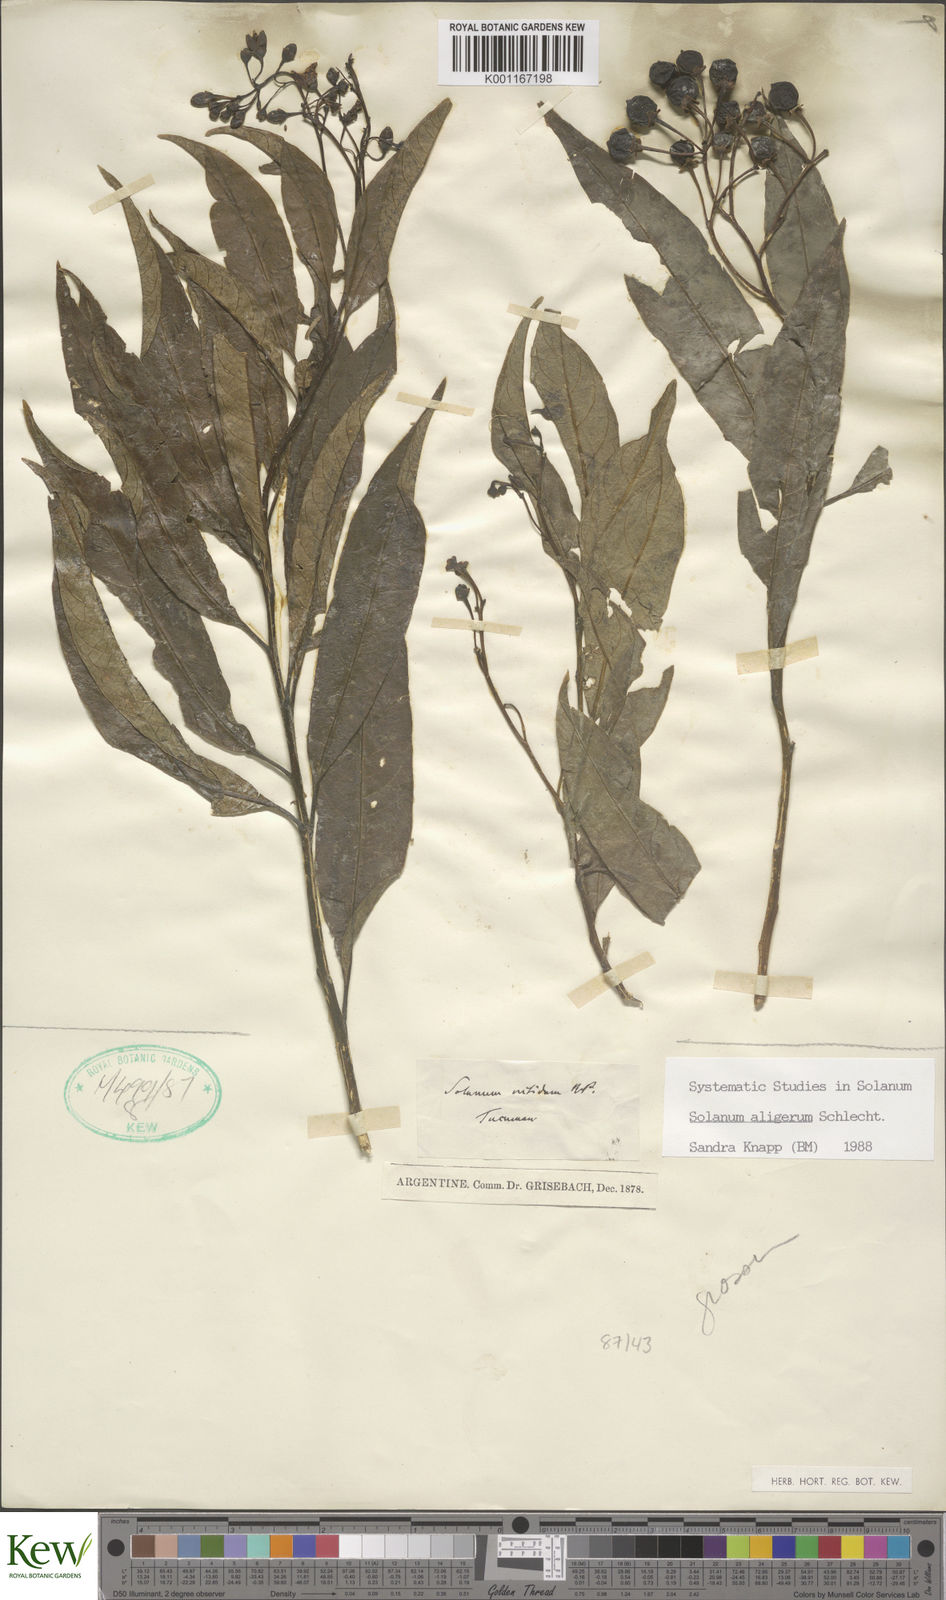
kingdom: Plantae
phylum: Tracheophyta
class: Magnoliopsida
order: Solanales
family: Solanaceae
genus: Solanum
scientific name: Solanum aligerum
